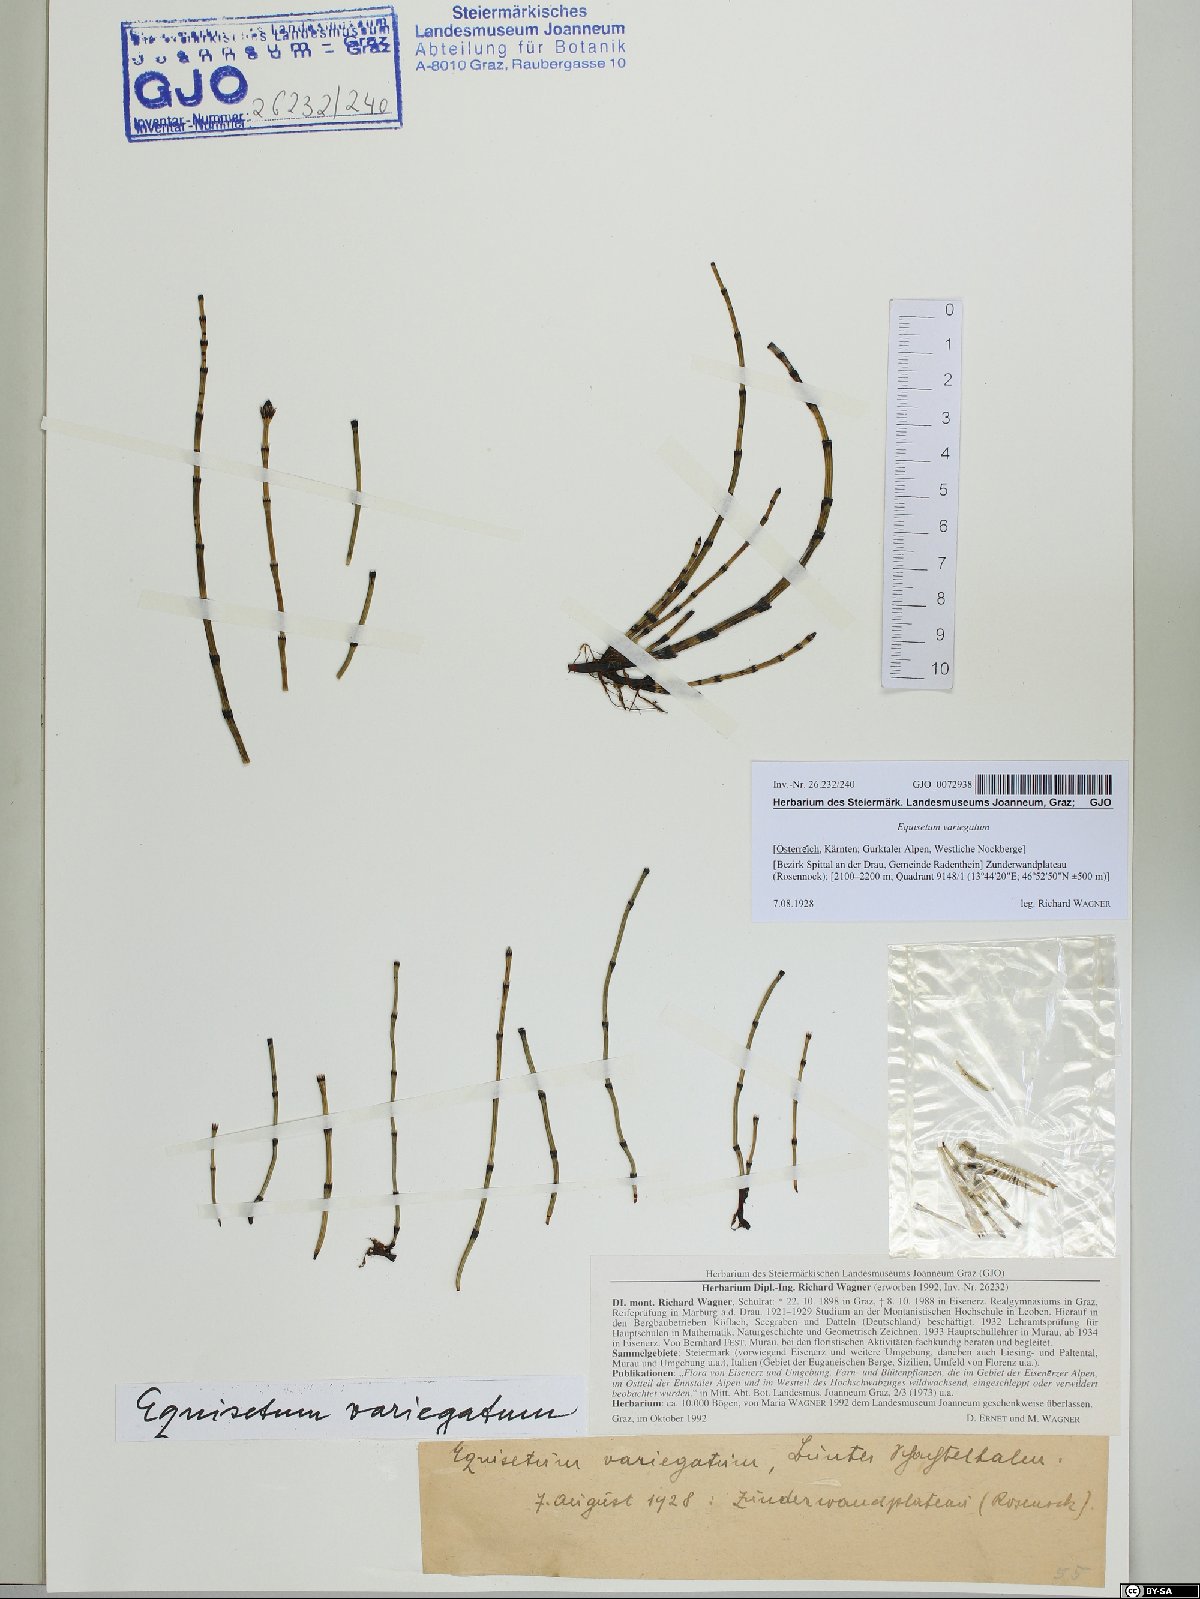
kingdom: Plantae
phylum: Tracheophyta
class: Polypodiopsida
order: Equisetales
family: Equisetaceae
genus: Equisetum
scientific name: Equisetum variegatum
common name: Variegated horsetail
